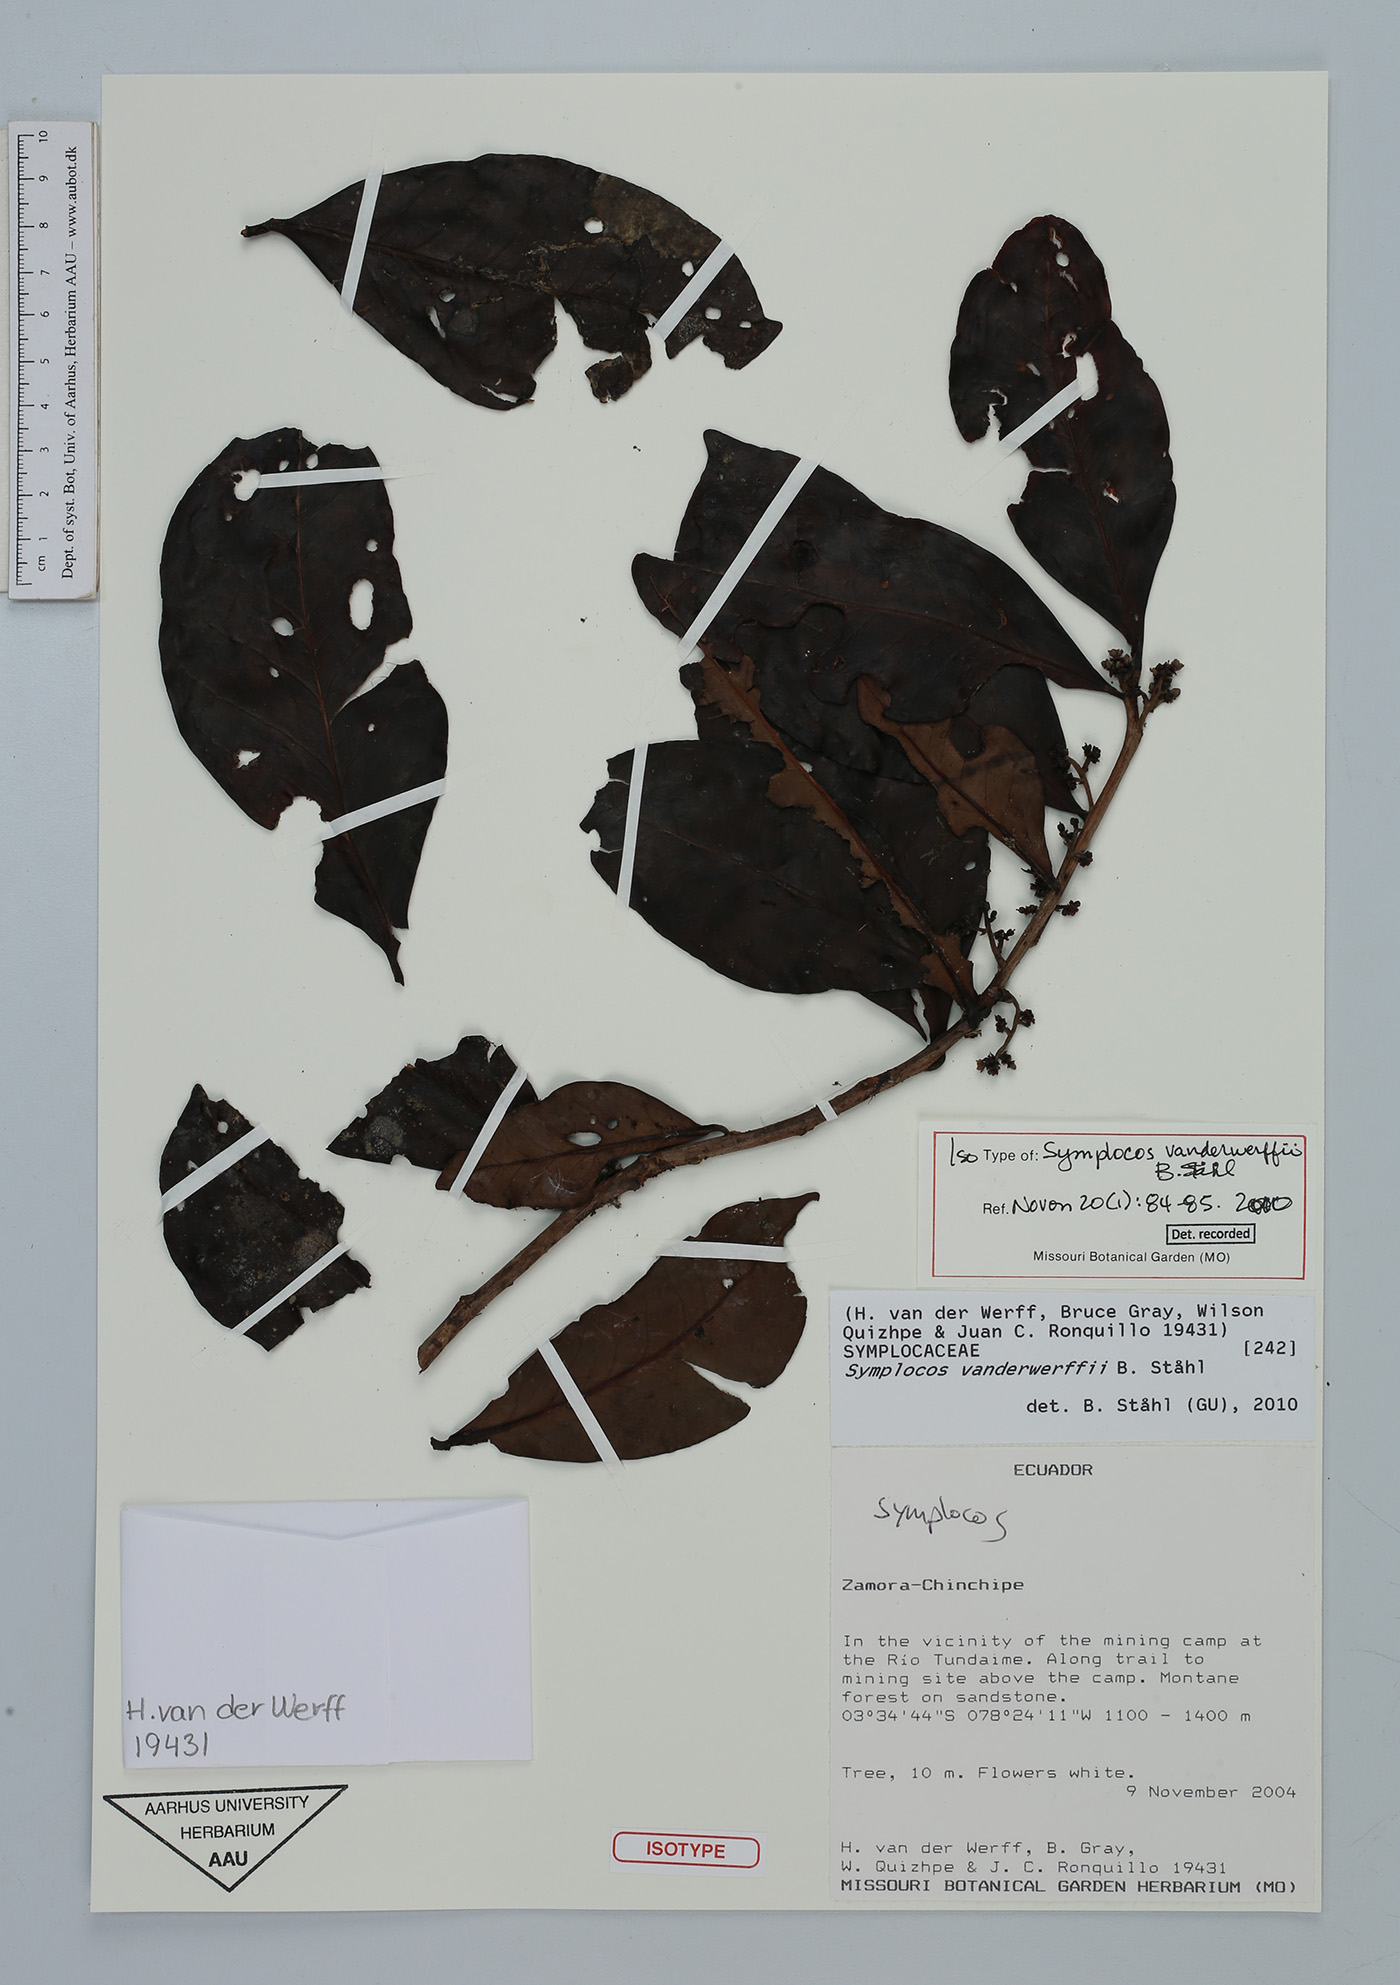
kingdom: Plantae
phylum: Tracheophyta
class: Magnoliopsida
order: Ericales
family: Symplocaceae
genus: Symplocos
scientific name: Symplocos vanderwerffii
